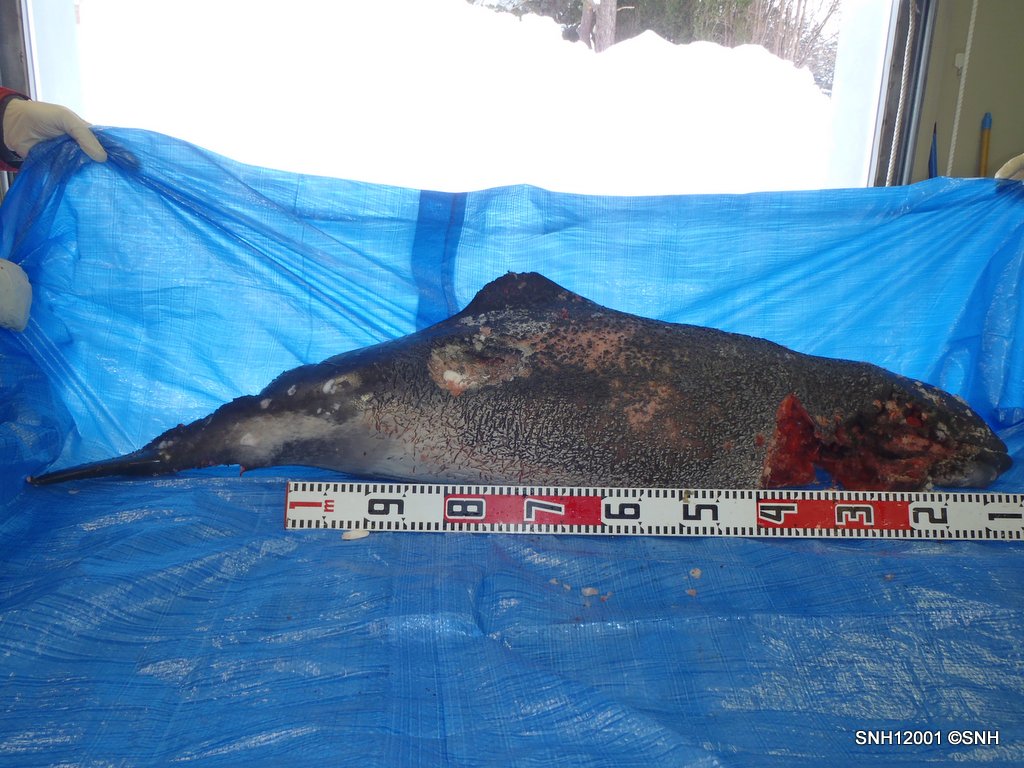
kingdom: Animalia
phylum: Chordata
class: Mammalia
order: Cetacea
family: Phocoenidae
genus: Phocoena
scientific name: Phocoena phocoena
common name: Harbour porpoise
